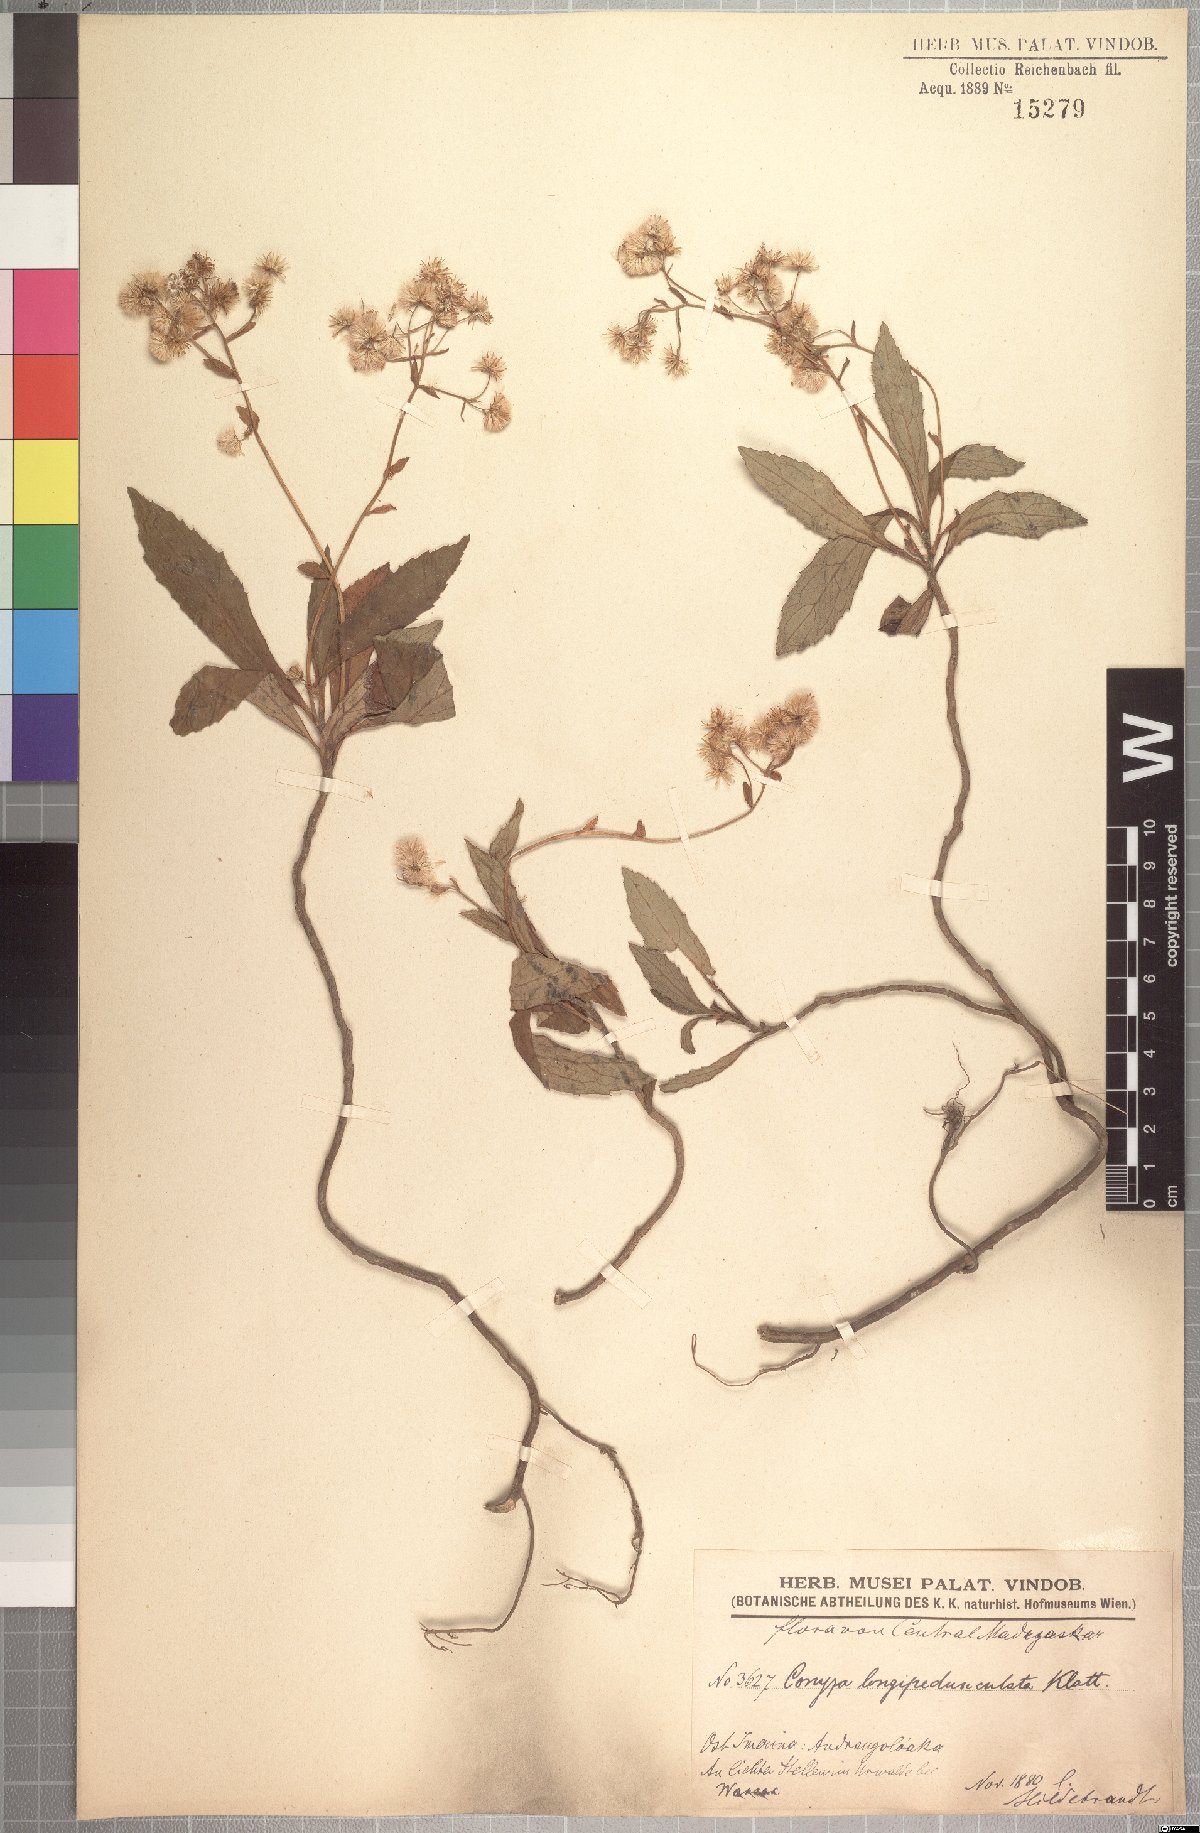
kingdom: Plantae
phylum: Tracheophyta
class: Magnoliopsida
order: Asterales
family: Asteraceae
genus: Conyza
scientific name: Conyza longipedunculata
